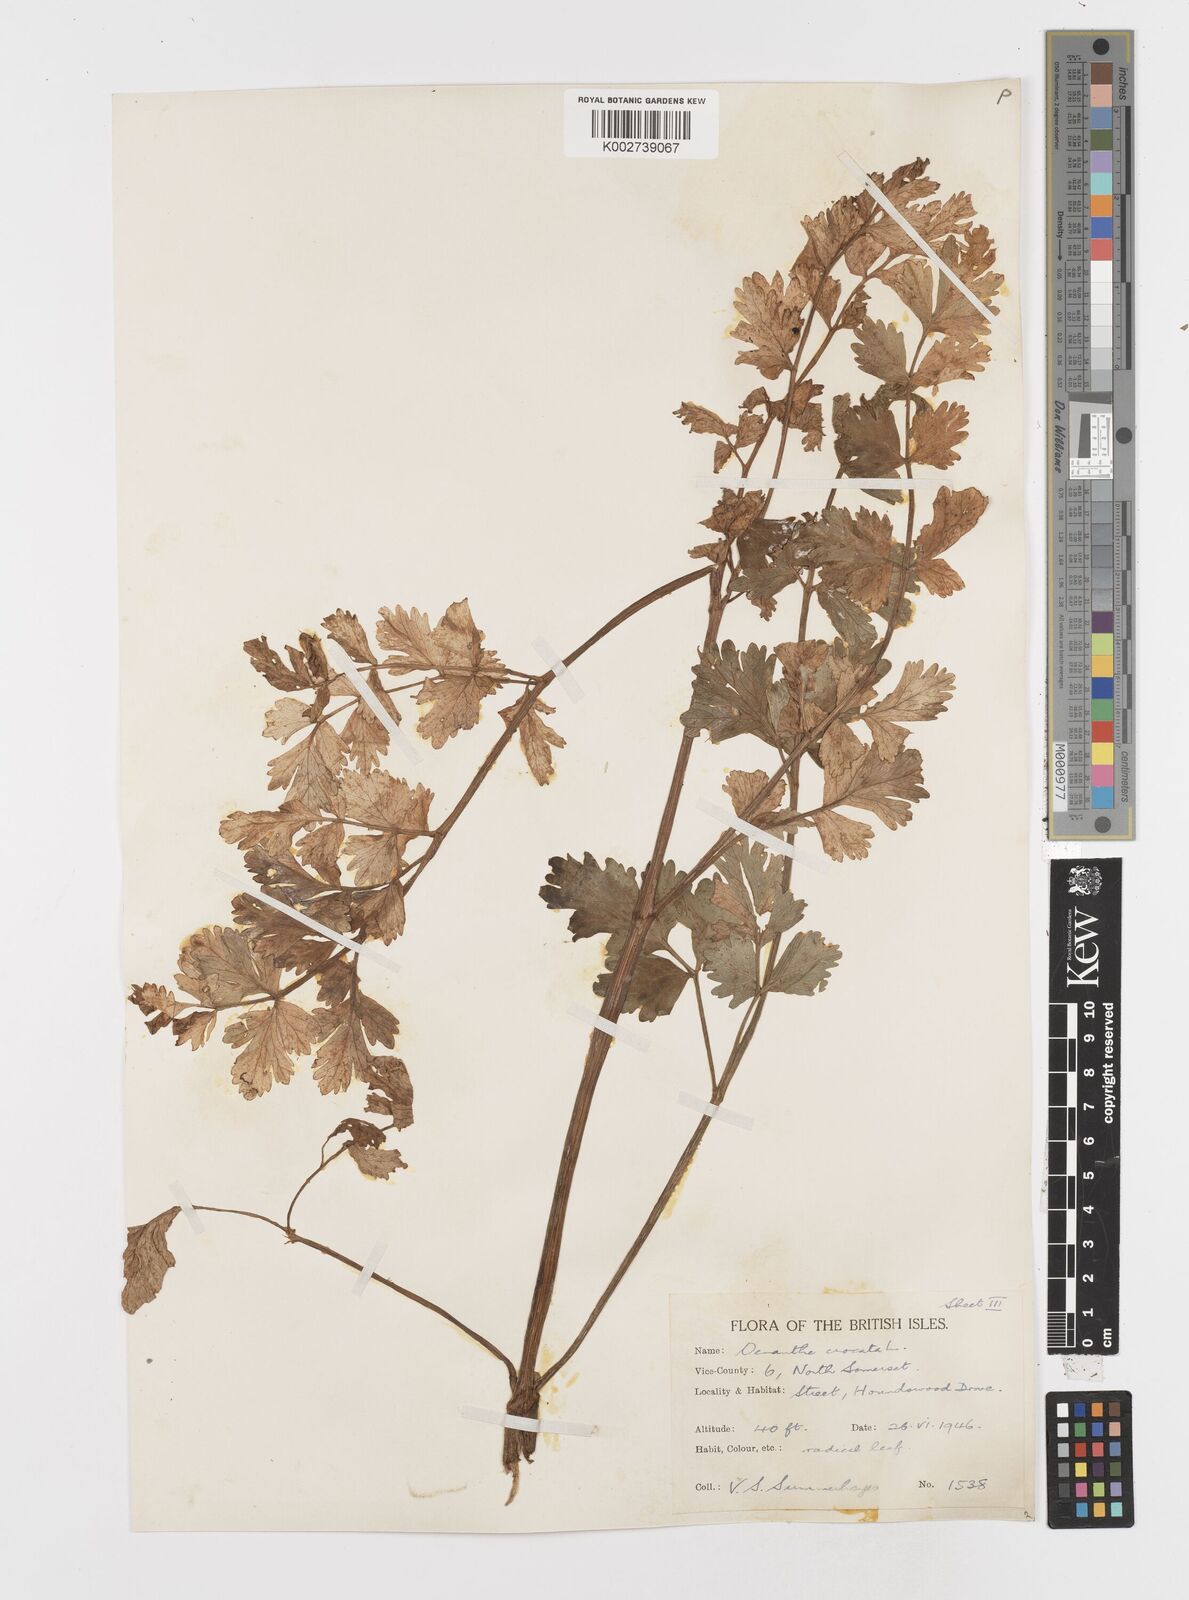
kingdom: Plantae
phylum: Tracheophyta
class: Magnoliopsida
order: Apiales
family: Apiaceae
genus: Oenanthe
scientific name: Oenanthe crocata
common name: Hemlock water-dropwort
